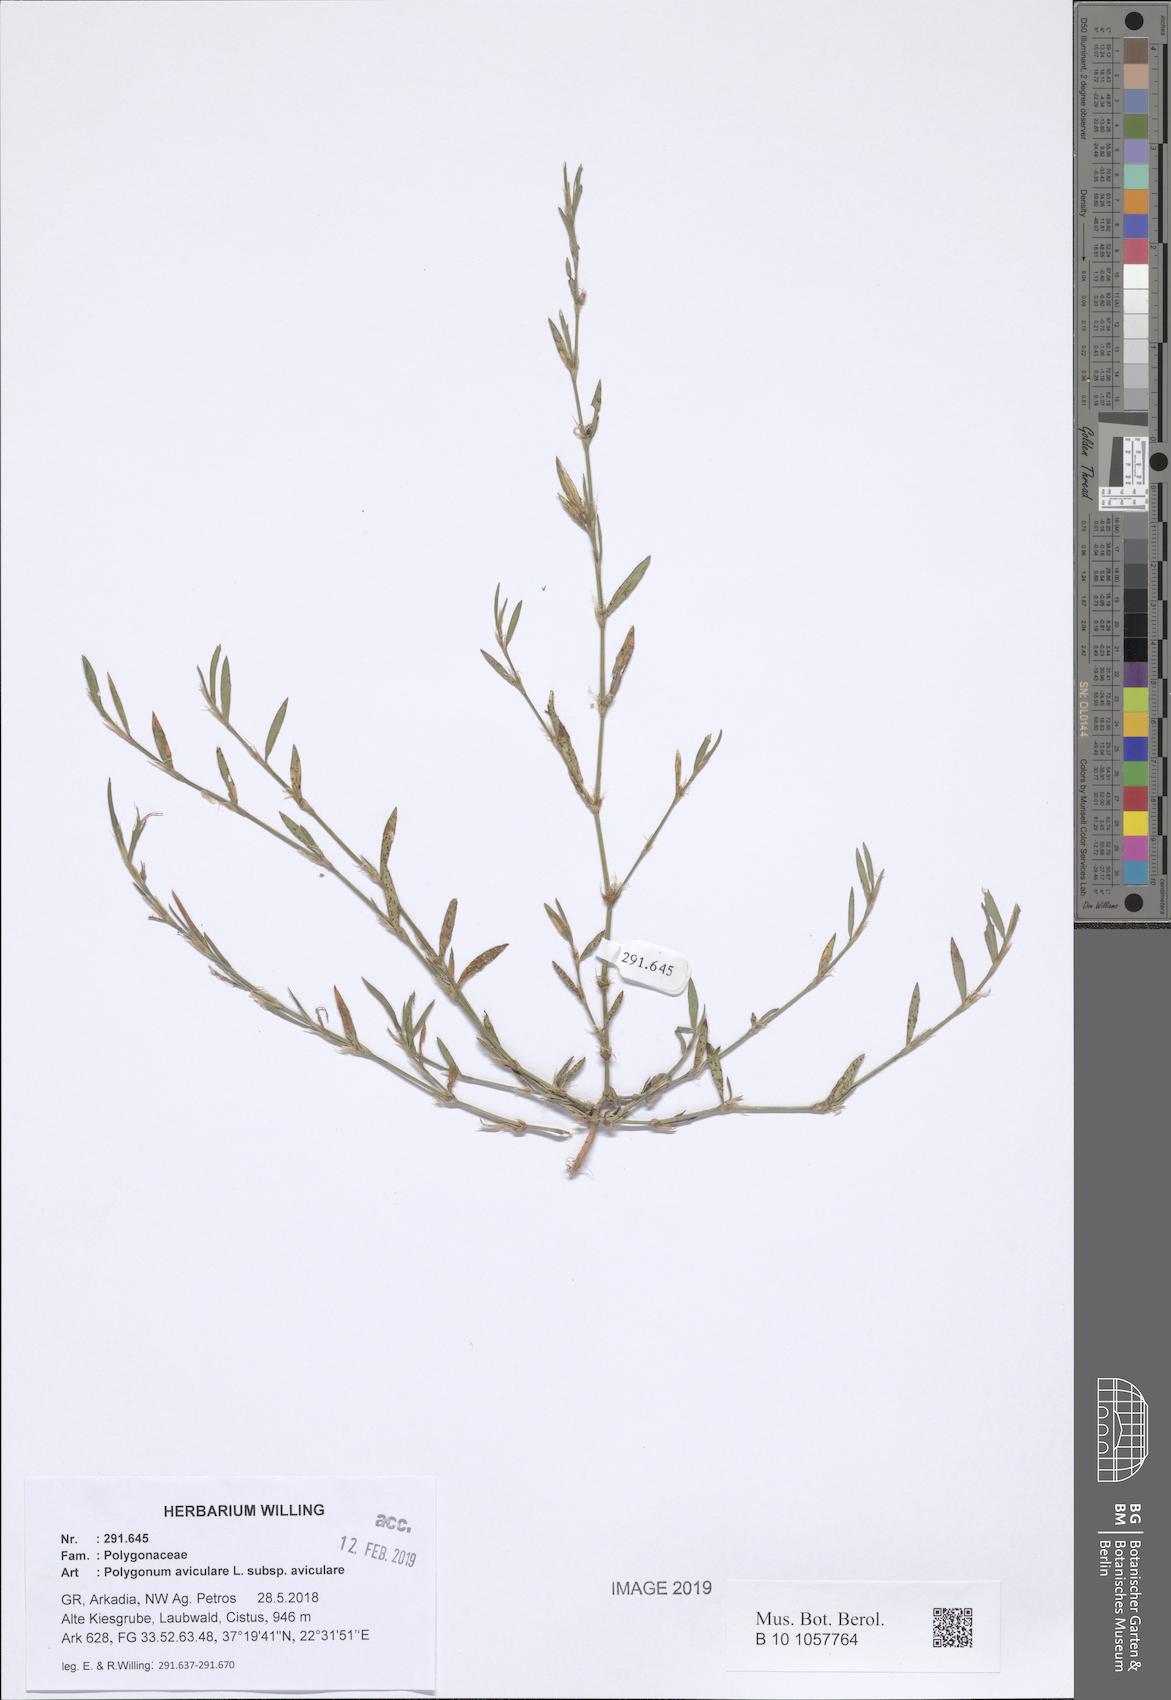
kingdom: Plantae
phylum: Tracheophyta
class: Magnoliopsida
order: Caryophyllales
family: Polygonaceae
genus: Polygonum
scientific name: Polygonum aviculare
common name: Prostrate knotweed
